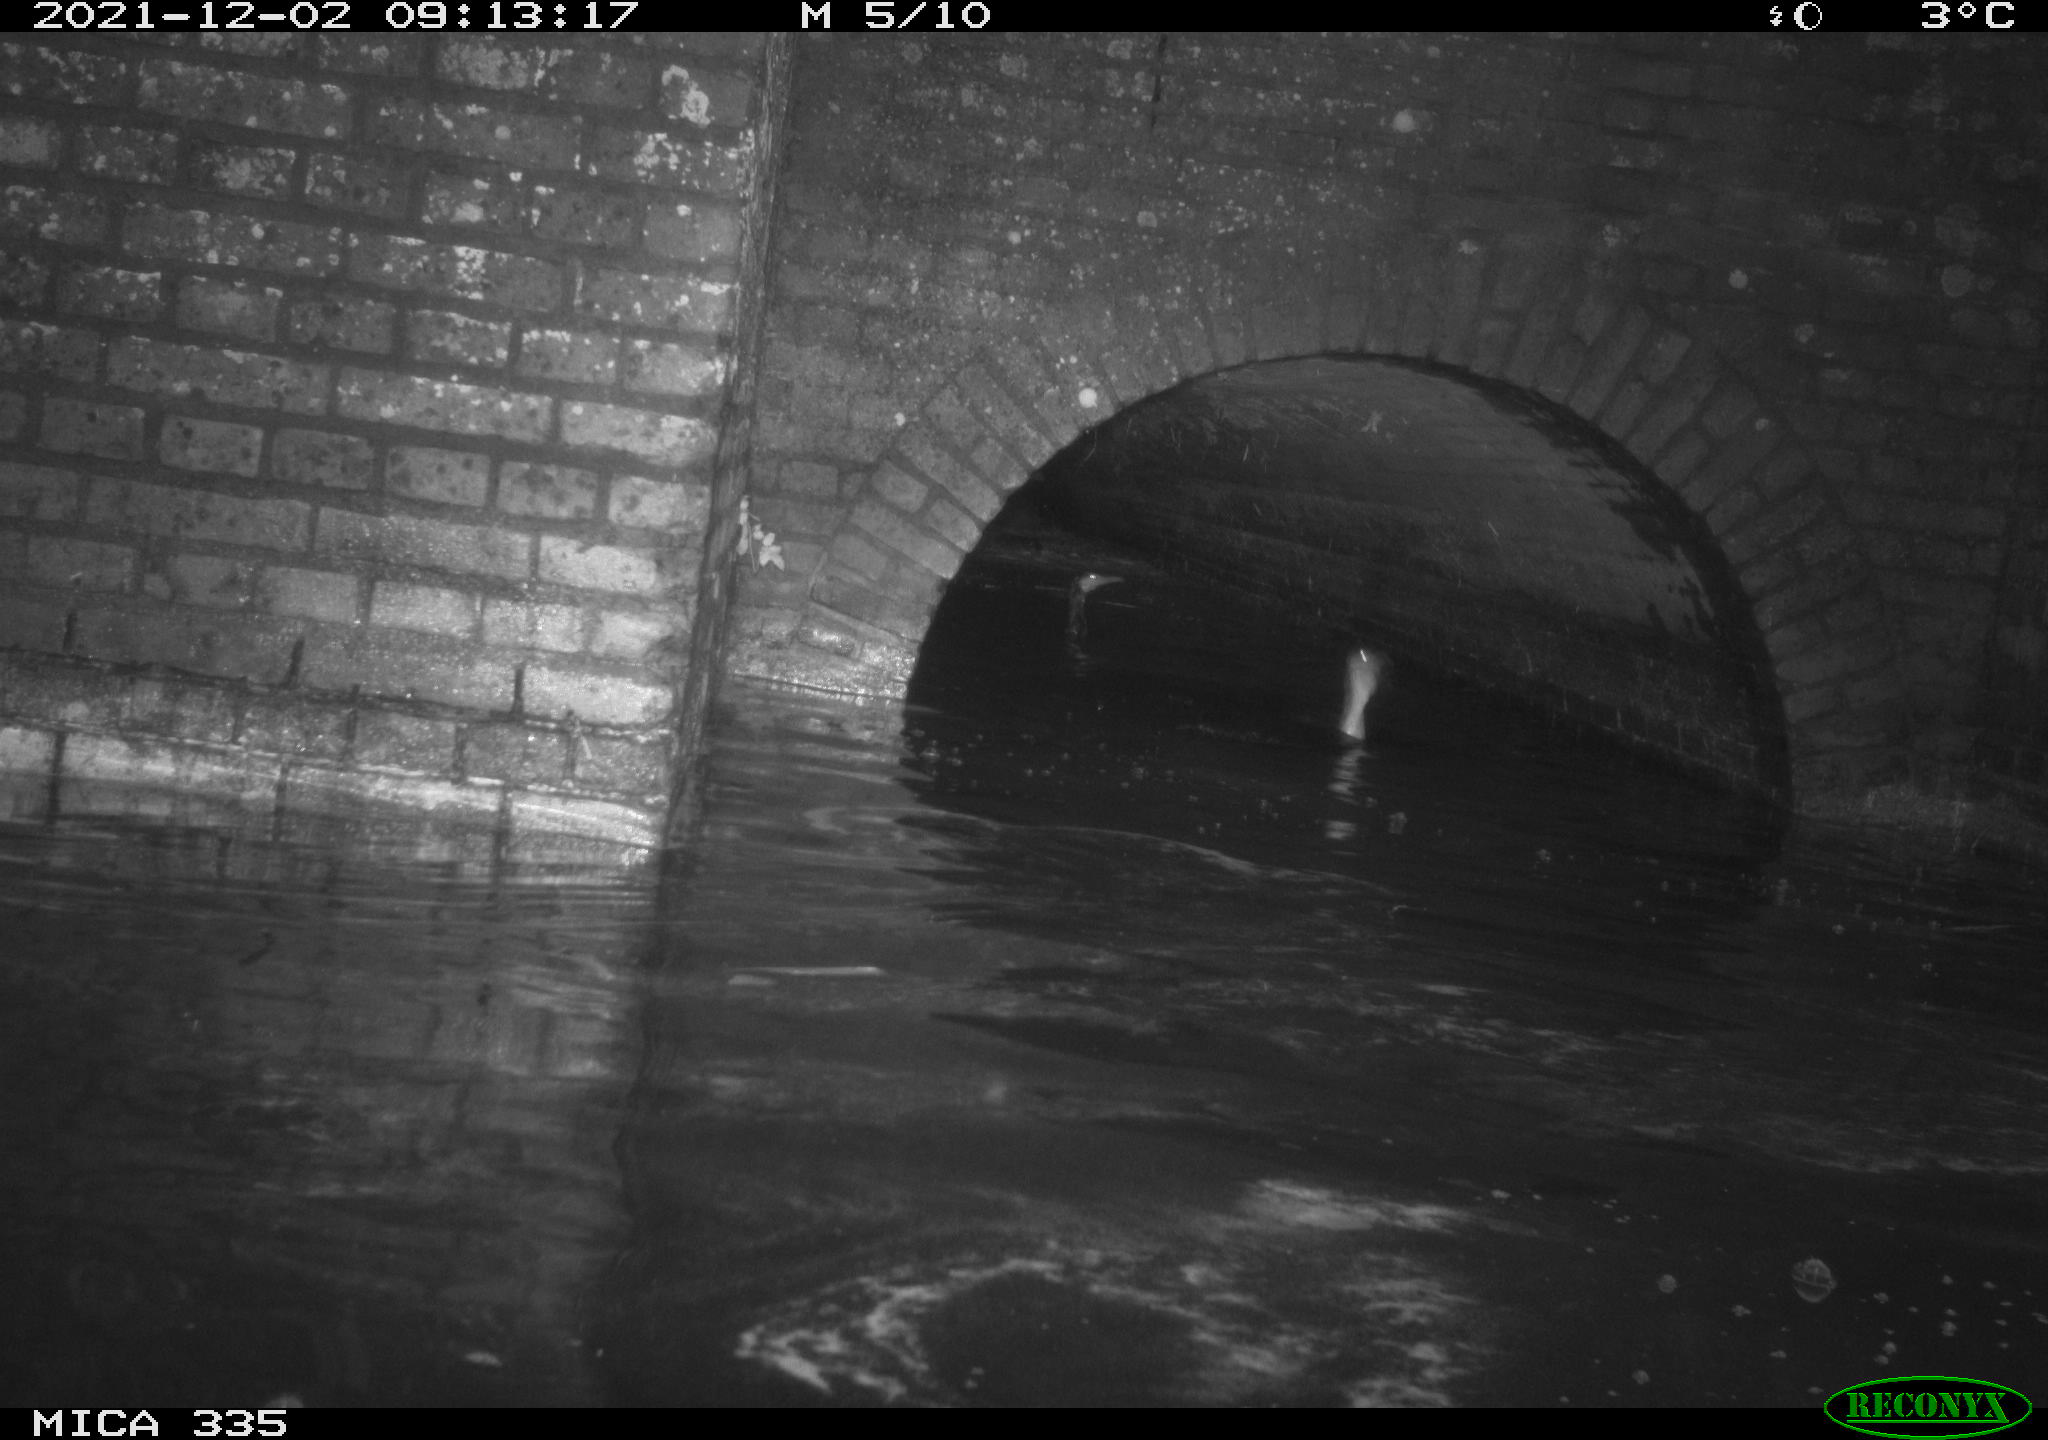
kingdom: Animalia
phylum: Chordata
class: Aves
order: Anseriformes
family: Anatidae
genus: Anas
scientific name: Anas platyrhynchos
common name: Mallard
